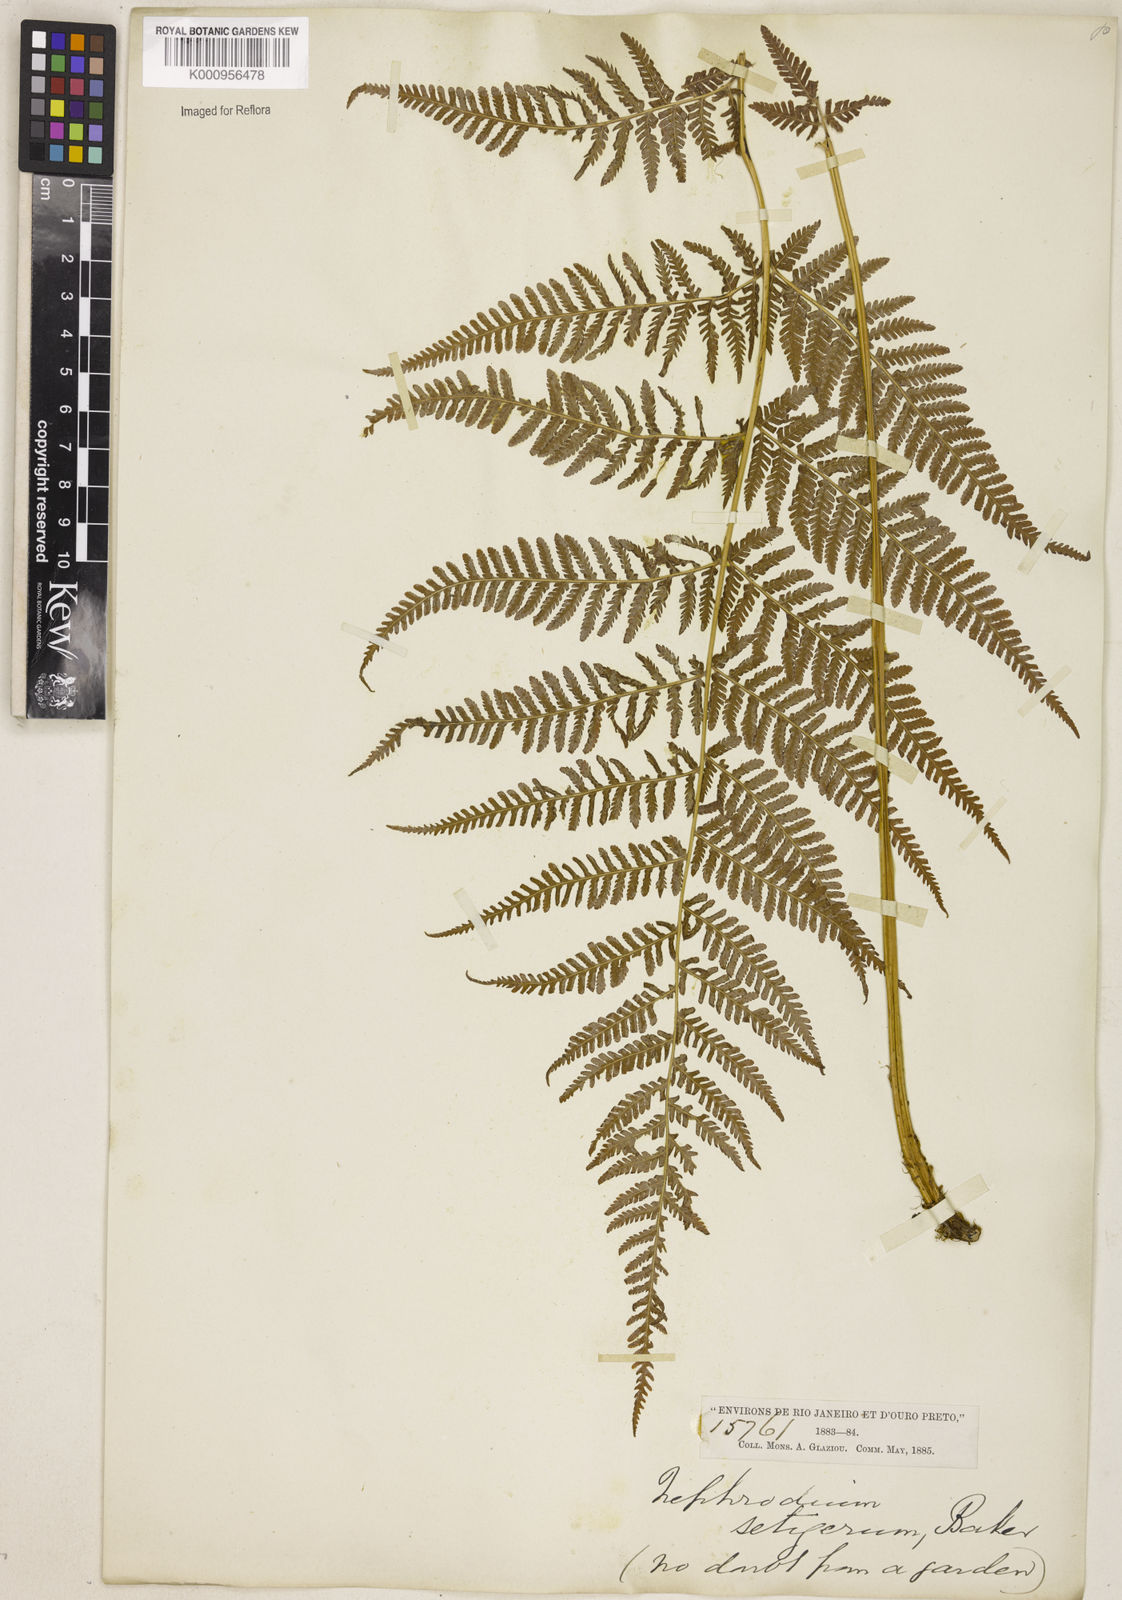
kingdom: Plantae
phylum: Tracheophyta
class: Polypodiopsida
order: Polypodiales
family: Thelypteridaceae
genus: Macrothelypteris
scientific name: Macrothelypteris torresiana
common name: Swordfern
